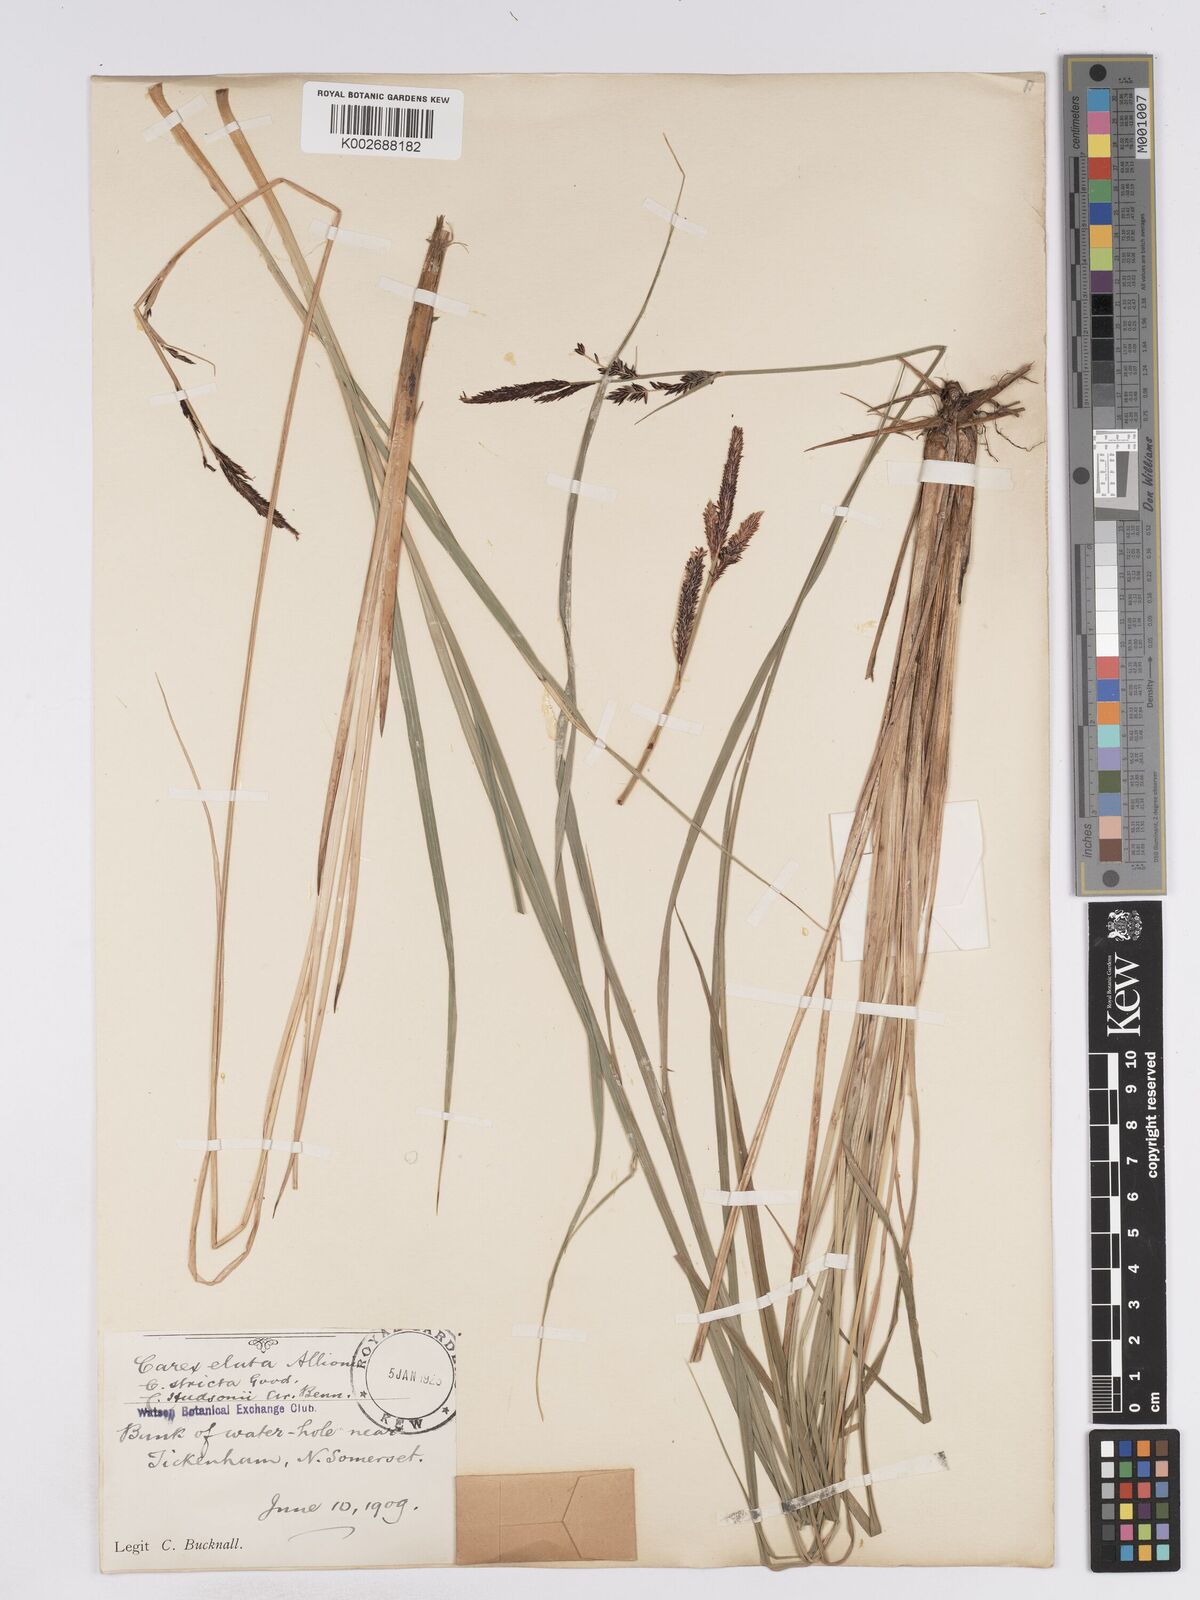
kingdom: Plantae
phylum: Tracheophyta
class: Liliopsida
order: Poales
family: Cyperaceae
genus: Carex
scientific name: Carex elata
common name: Tufted sedge
